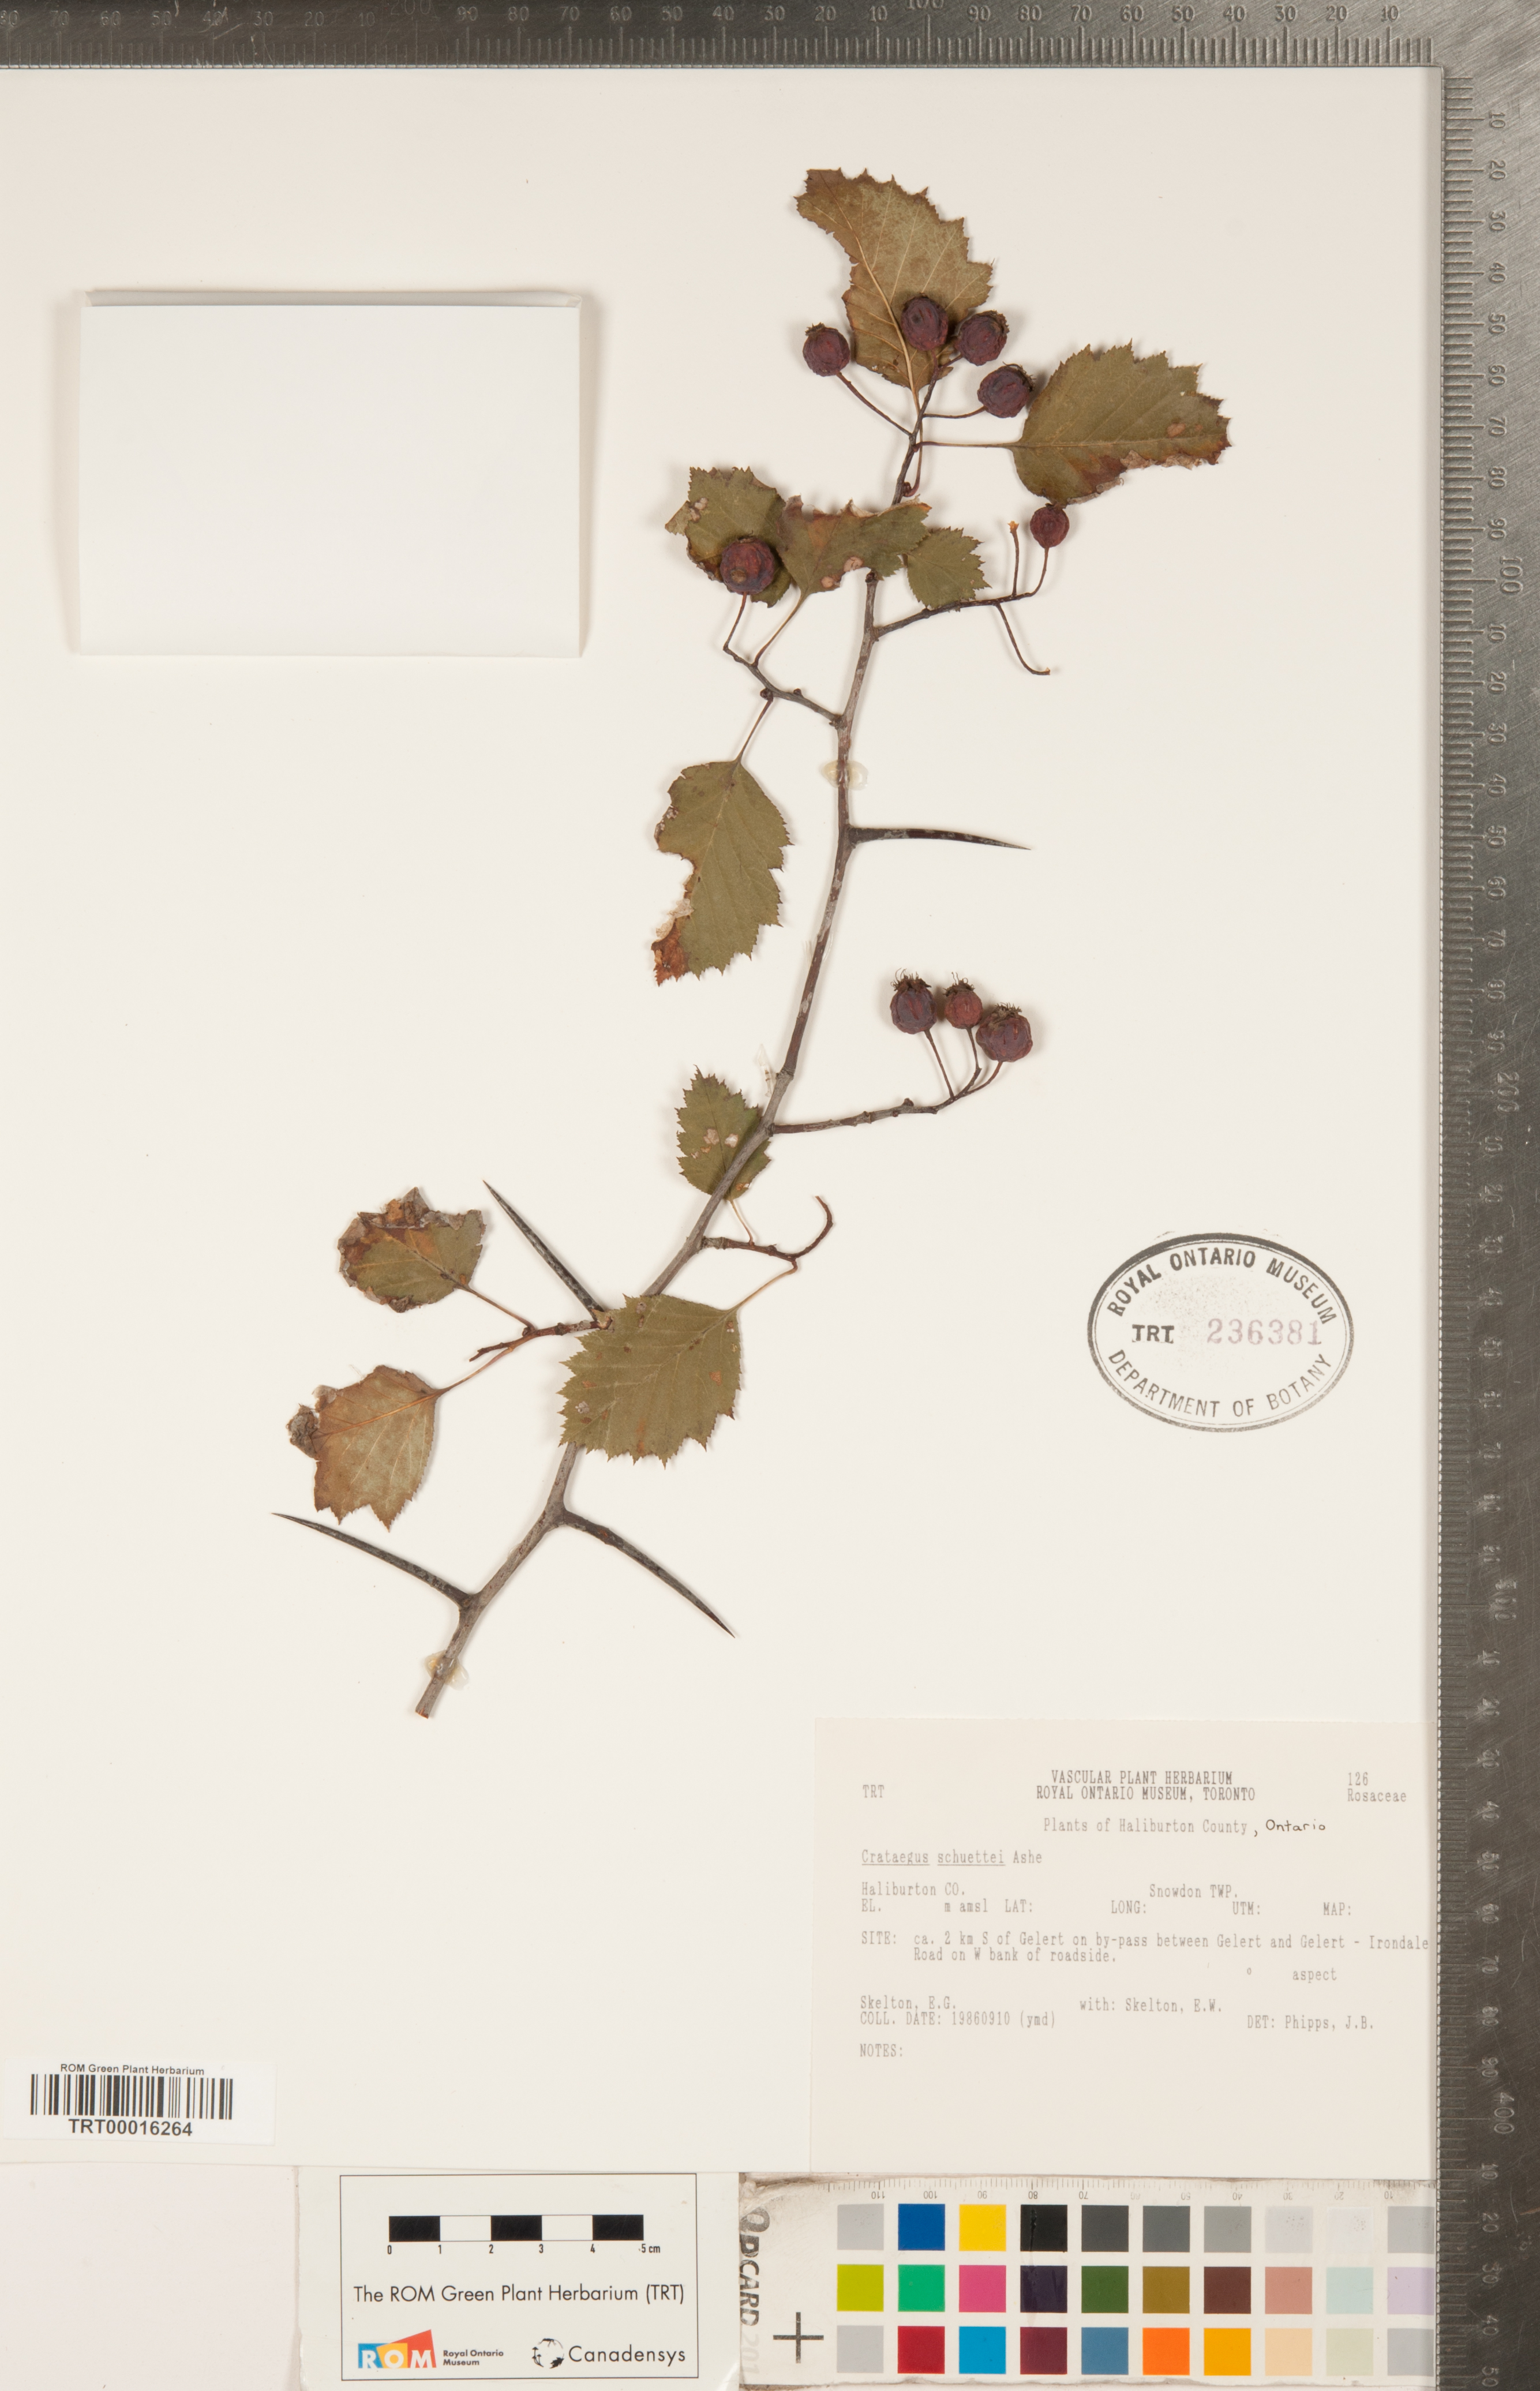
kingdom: Plantae
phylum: Tracheophyta
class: Magnoliopsida
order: Rosales
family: Rosaceae
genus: Crataegus
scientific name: Crataegus schuettei
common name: Schuette's hawthorn
